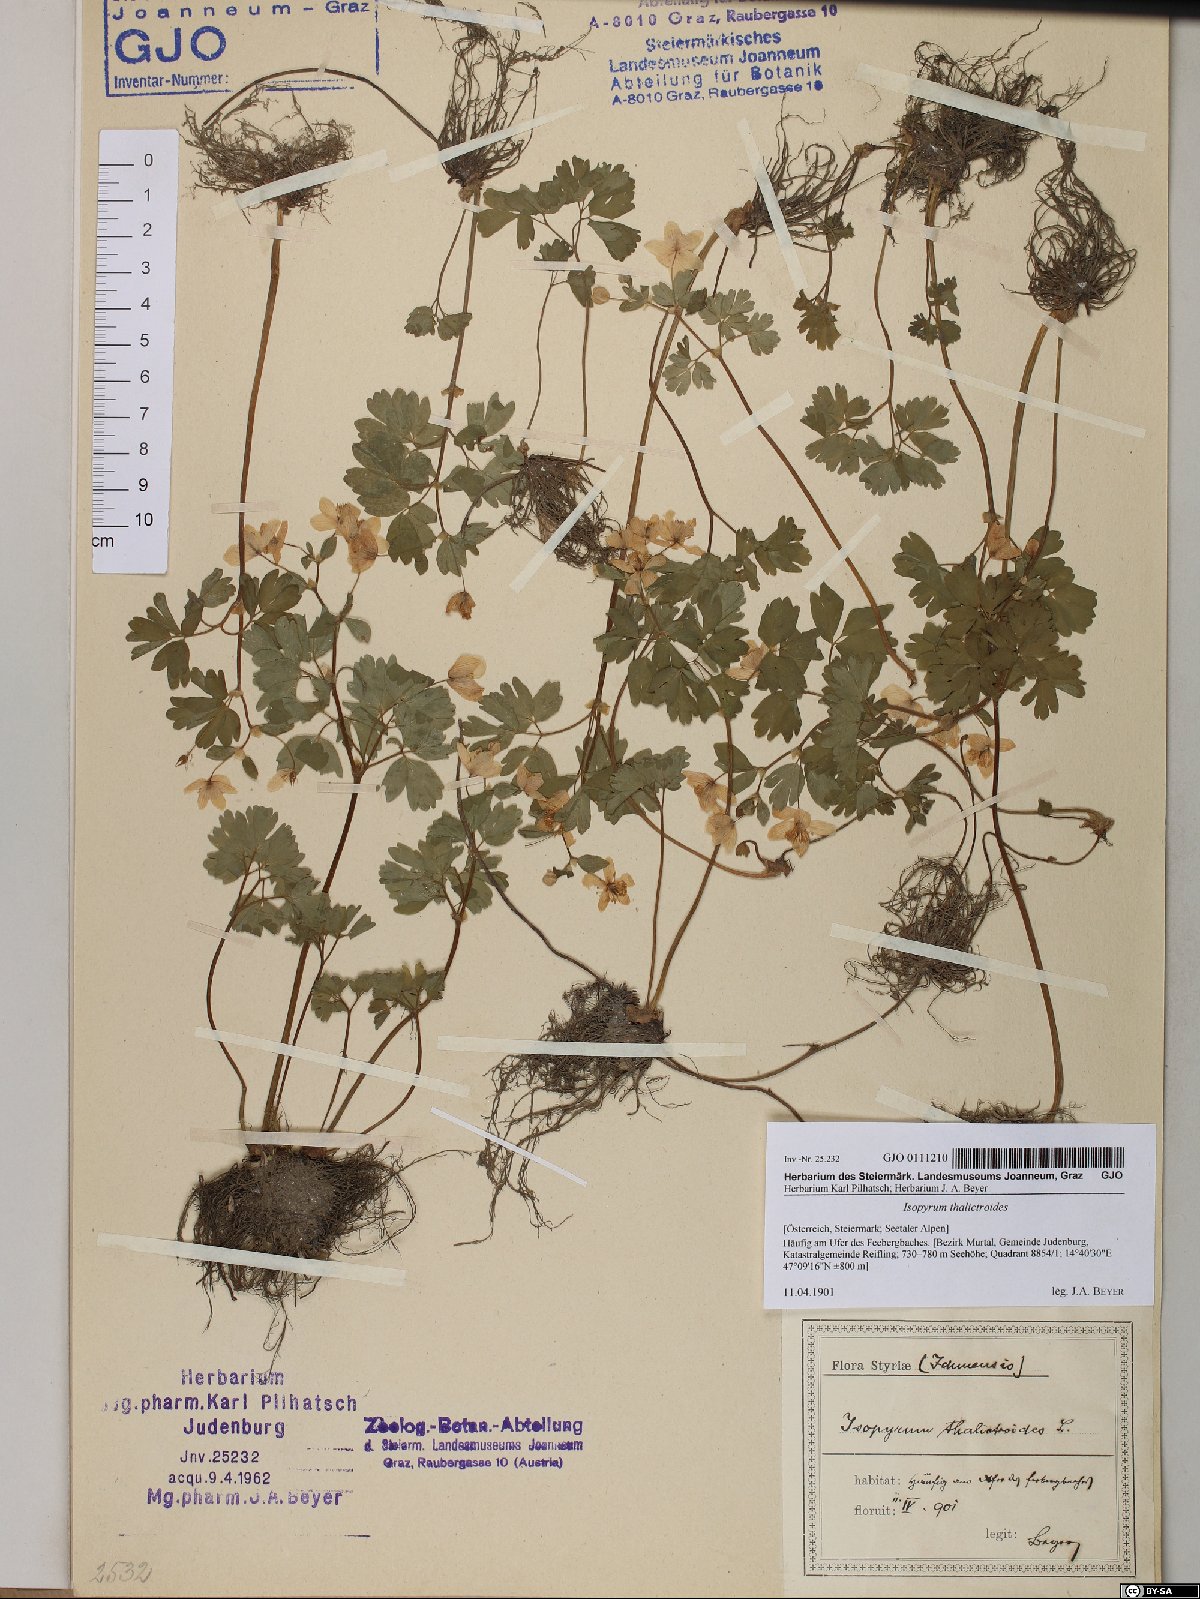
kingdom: Plantae
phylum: Tracheophyta
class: Magnoliopsida
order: Ranunculales
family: Ranunculaceae
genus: Isopyrum
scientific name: Isopyrum thalictroides
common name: Isopyrum
